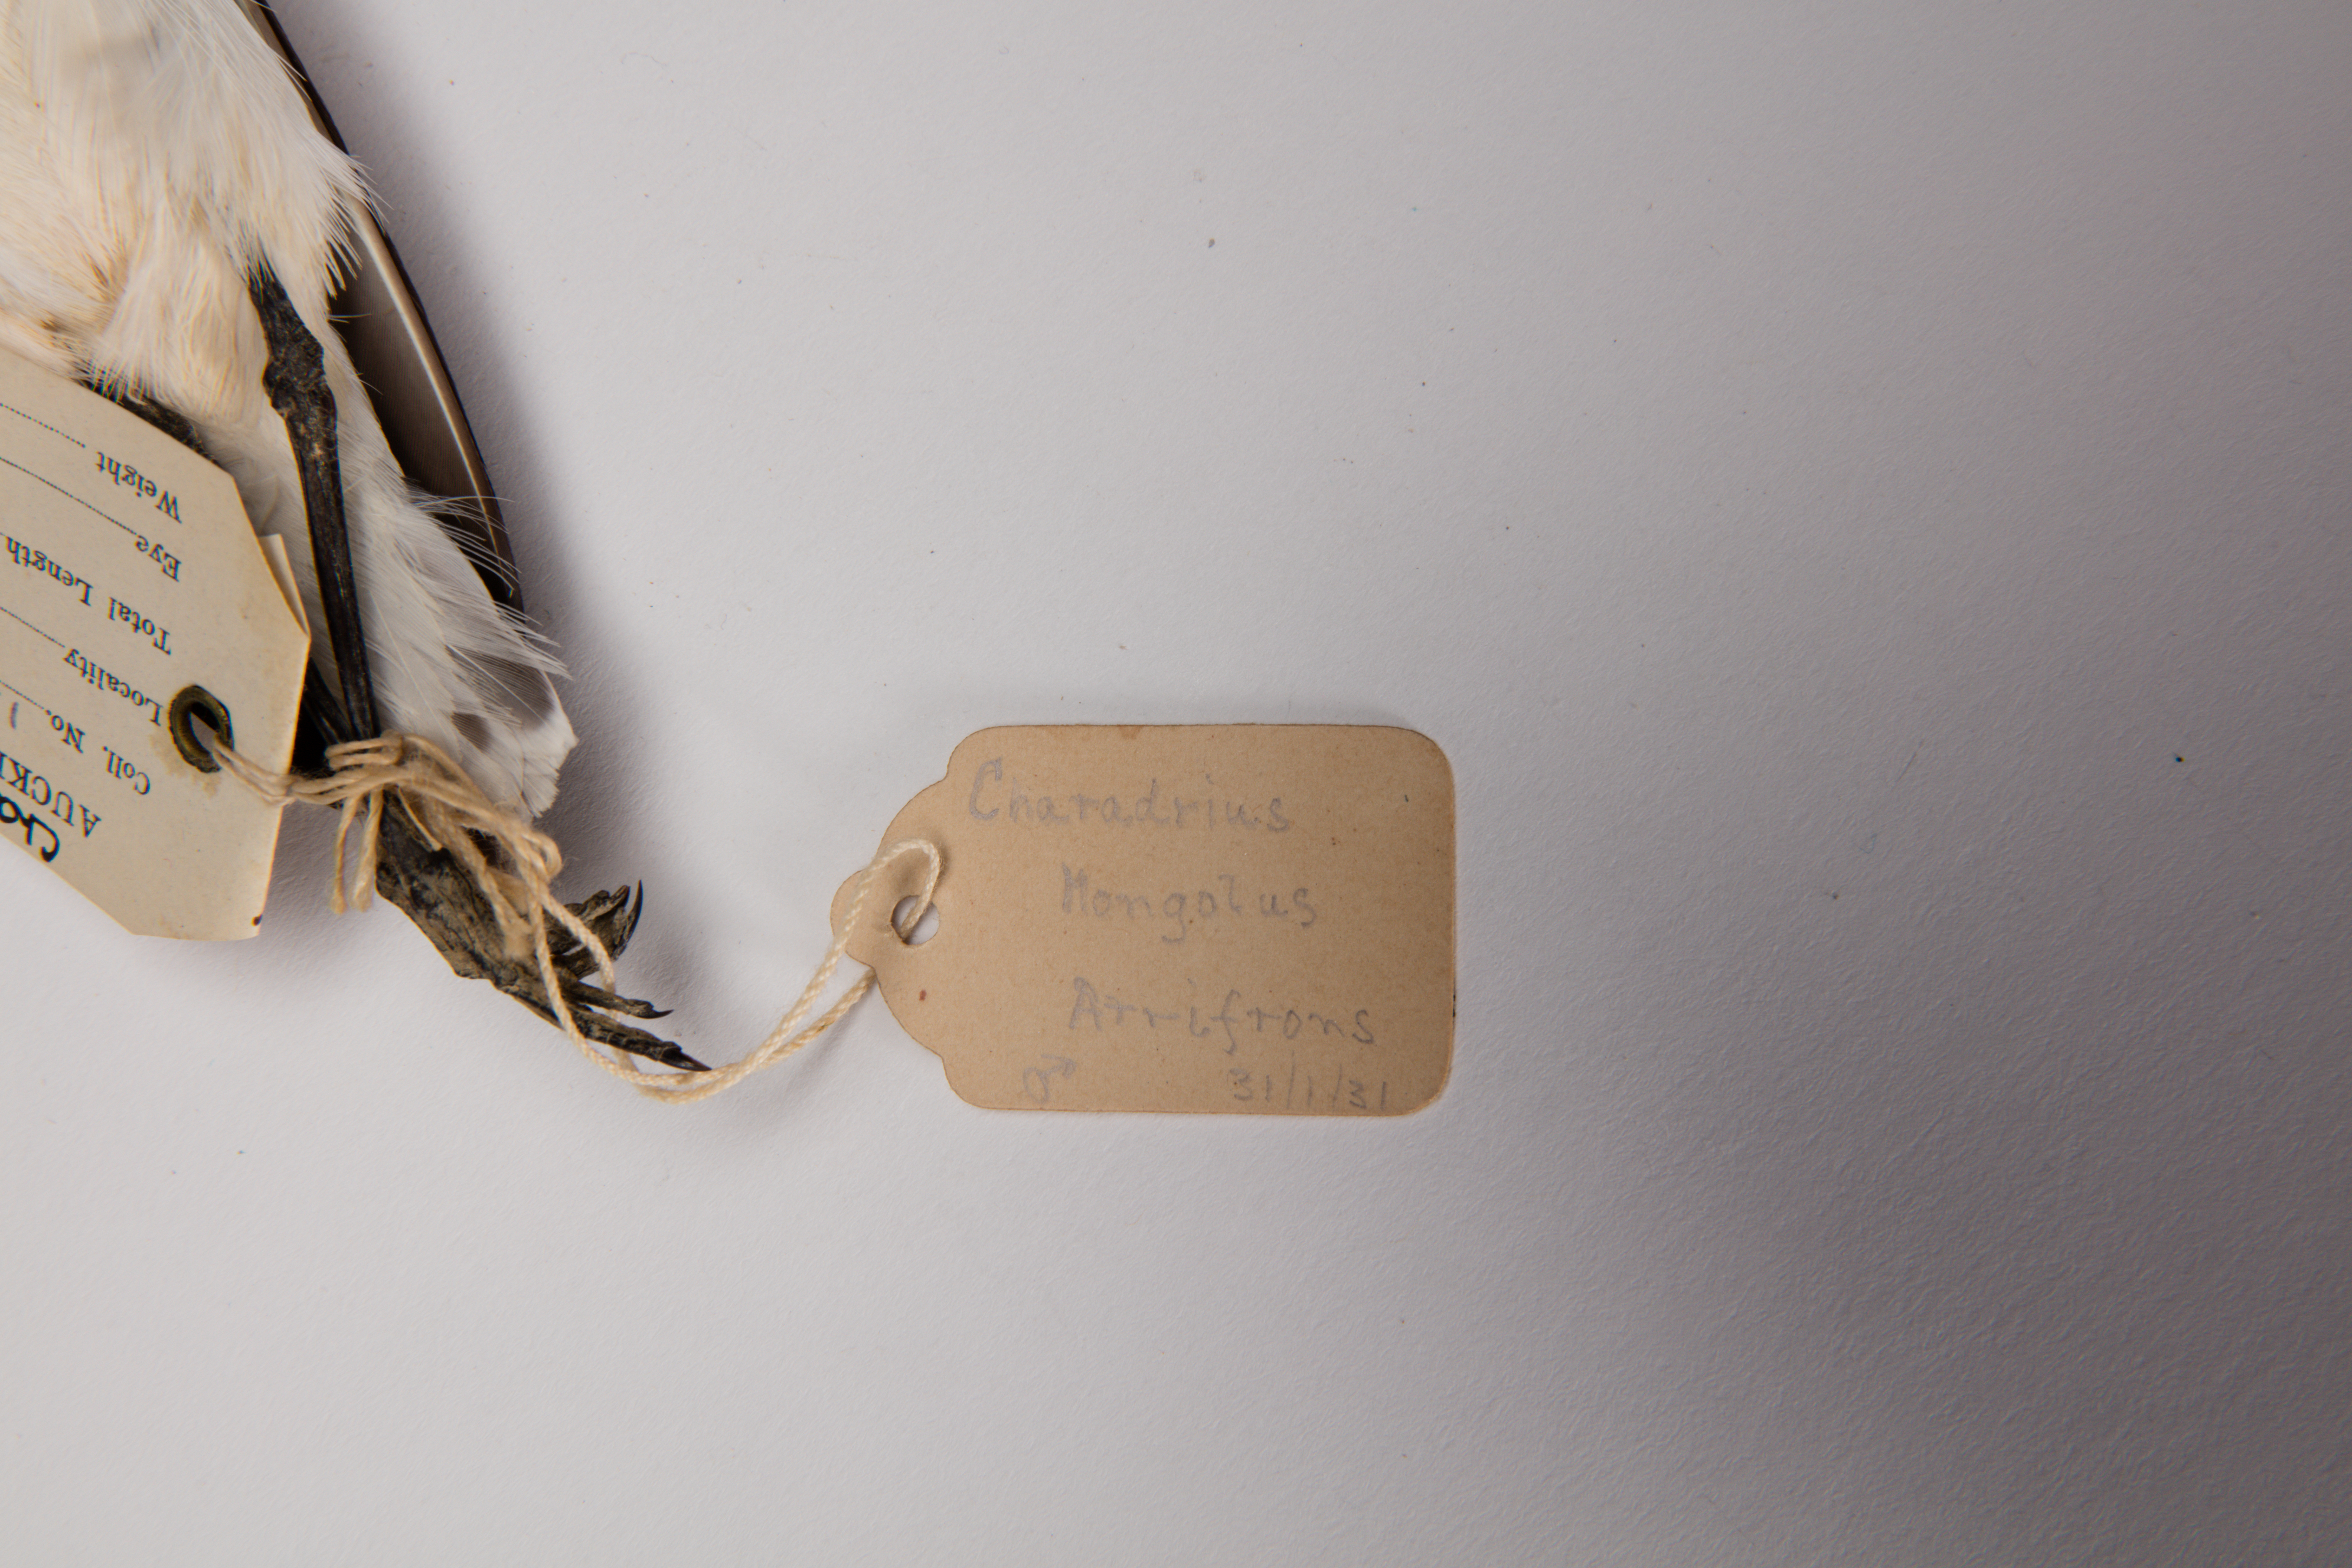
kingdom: Animalia
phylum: Chordata
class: Aves
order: Charadriiformes
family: Charadriidae
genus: Charadrius
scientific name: Charadrius mongolus
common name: Lesser sand-plover
